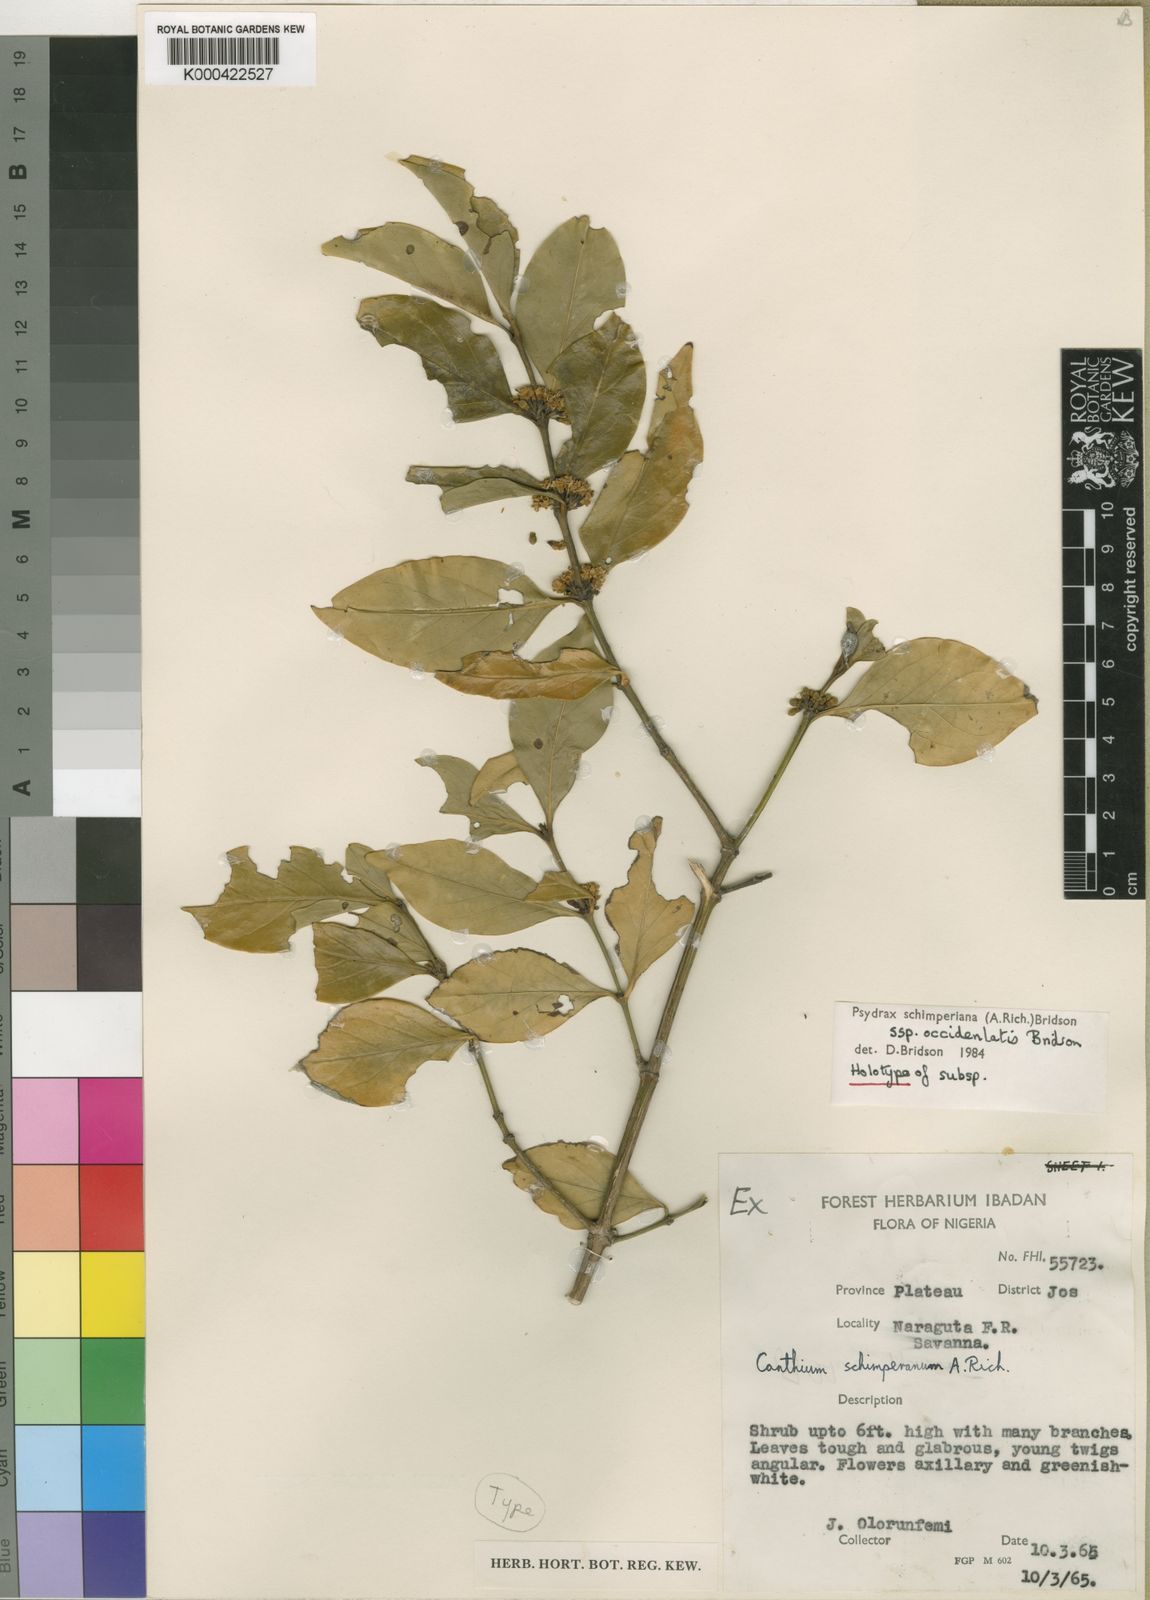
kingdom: Plantae
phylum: Tracheophyta
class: Magnoliopsida
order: Gentianales
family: Rubiaceae
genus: Psydrax
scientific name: Psydrax schimperianus
